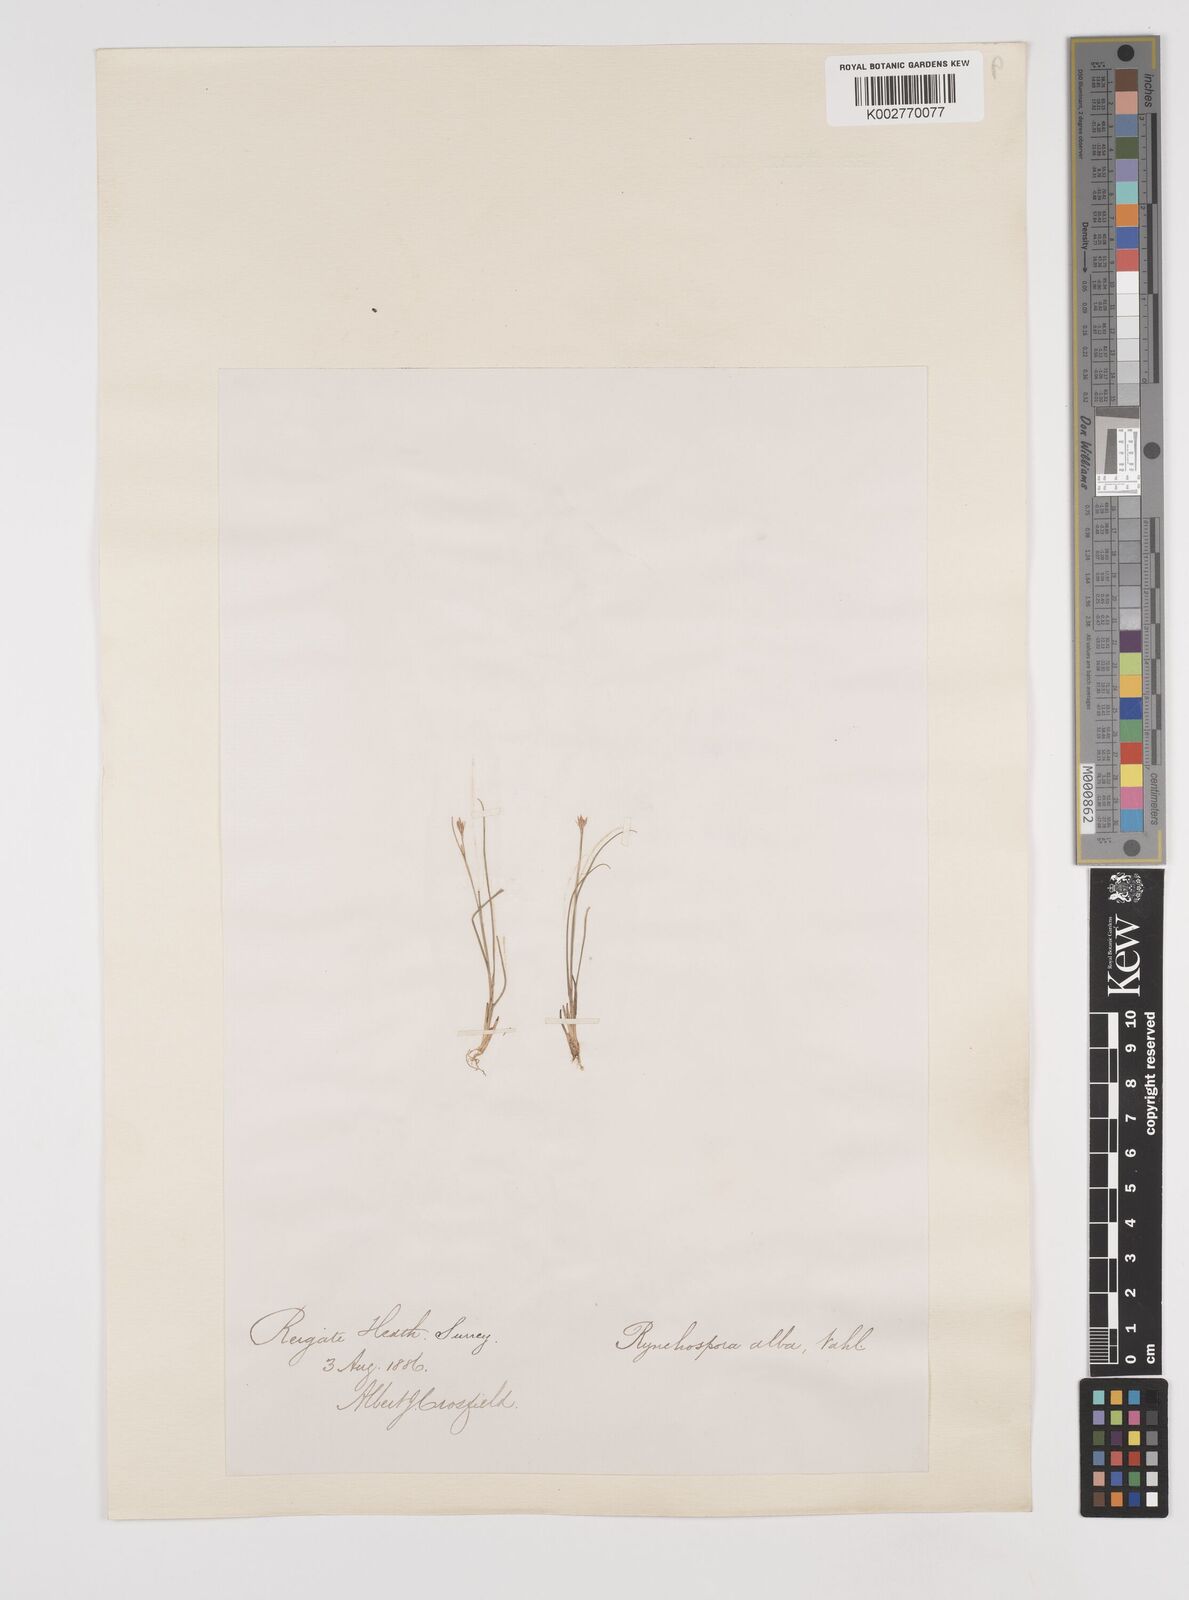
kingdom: Plantae
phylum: Tracheophyta
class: Liliopsida
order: Poales
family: Cyperaceae
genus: Rhynchospora
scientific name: Rhynchospora alba
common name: White beak-sedge
